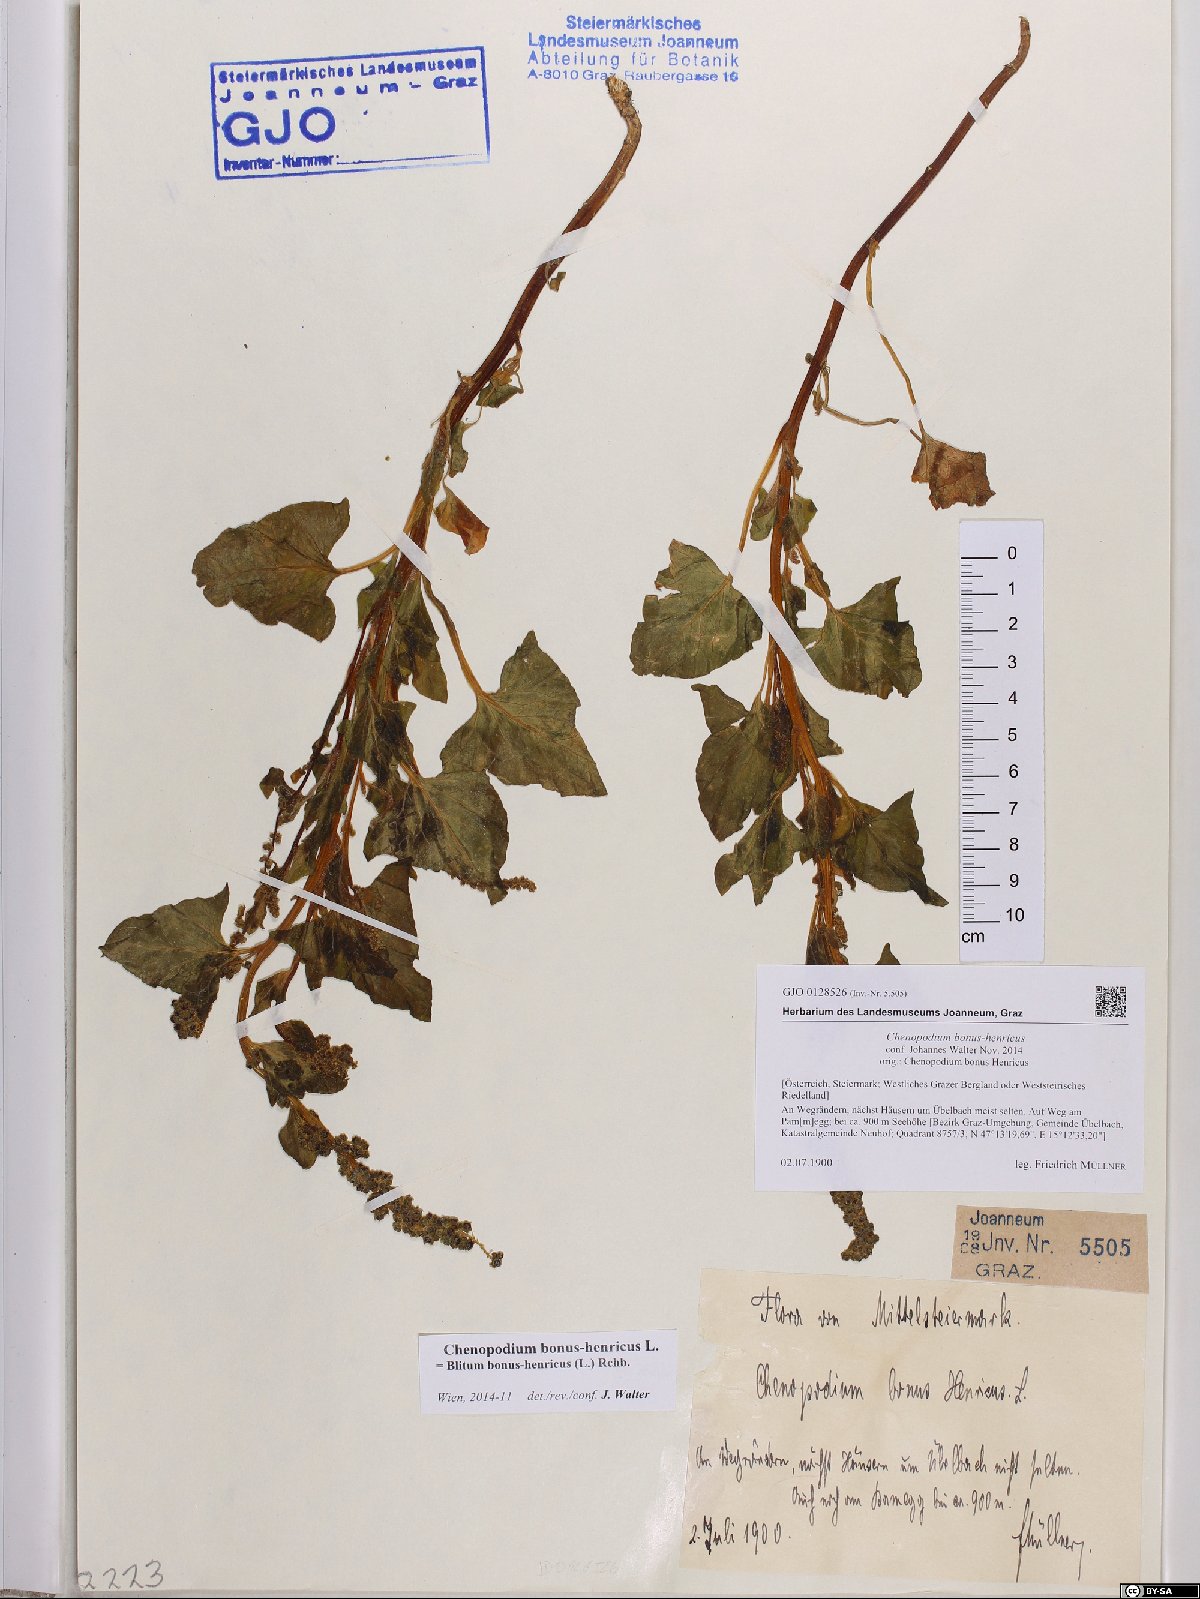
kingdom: Plantae
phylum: Tracheophyta
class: Magnoliopsida
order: Caryophyllales
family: Amaranthaceae
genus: Blitum
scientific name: Blitum bonus-henricus
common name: Good king henry
